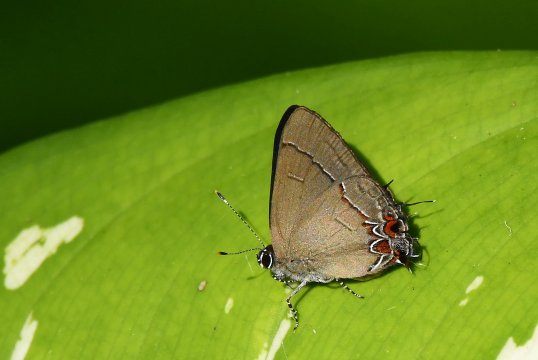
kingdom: Animalia
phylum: Arthropoda
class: Insecta
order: Lepidoptera
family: Lycaenidae
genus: Calycopis
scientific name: Calycopis thama
